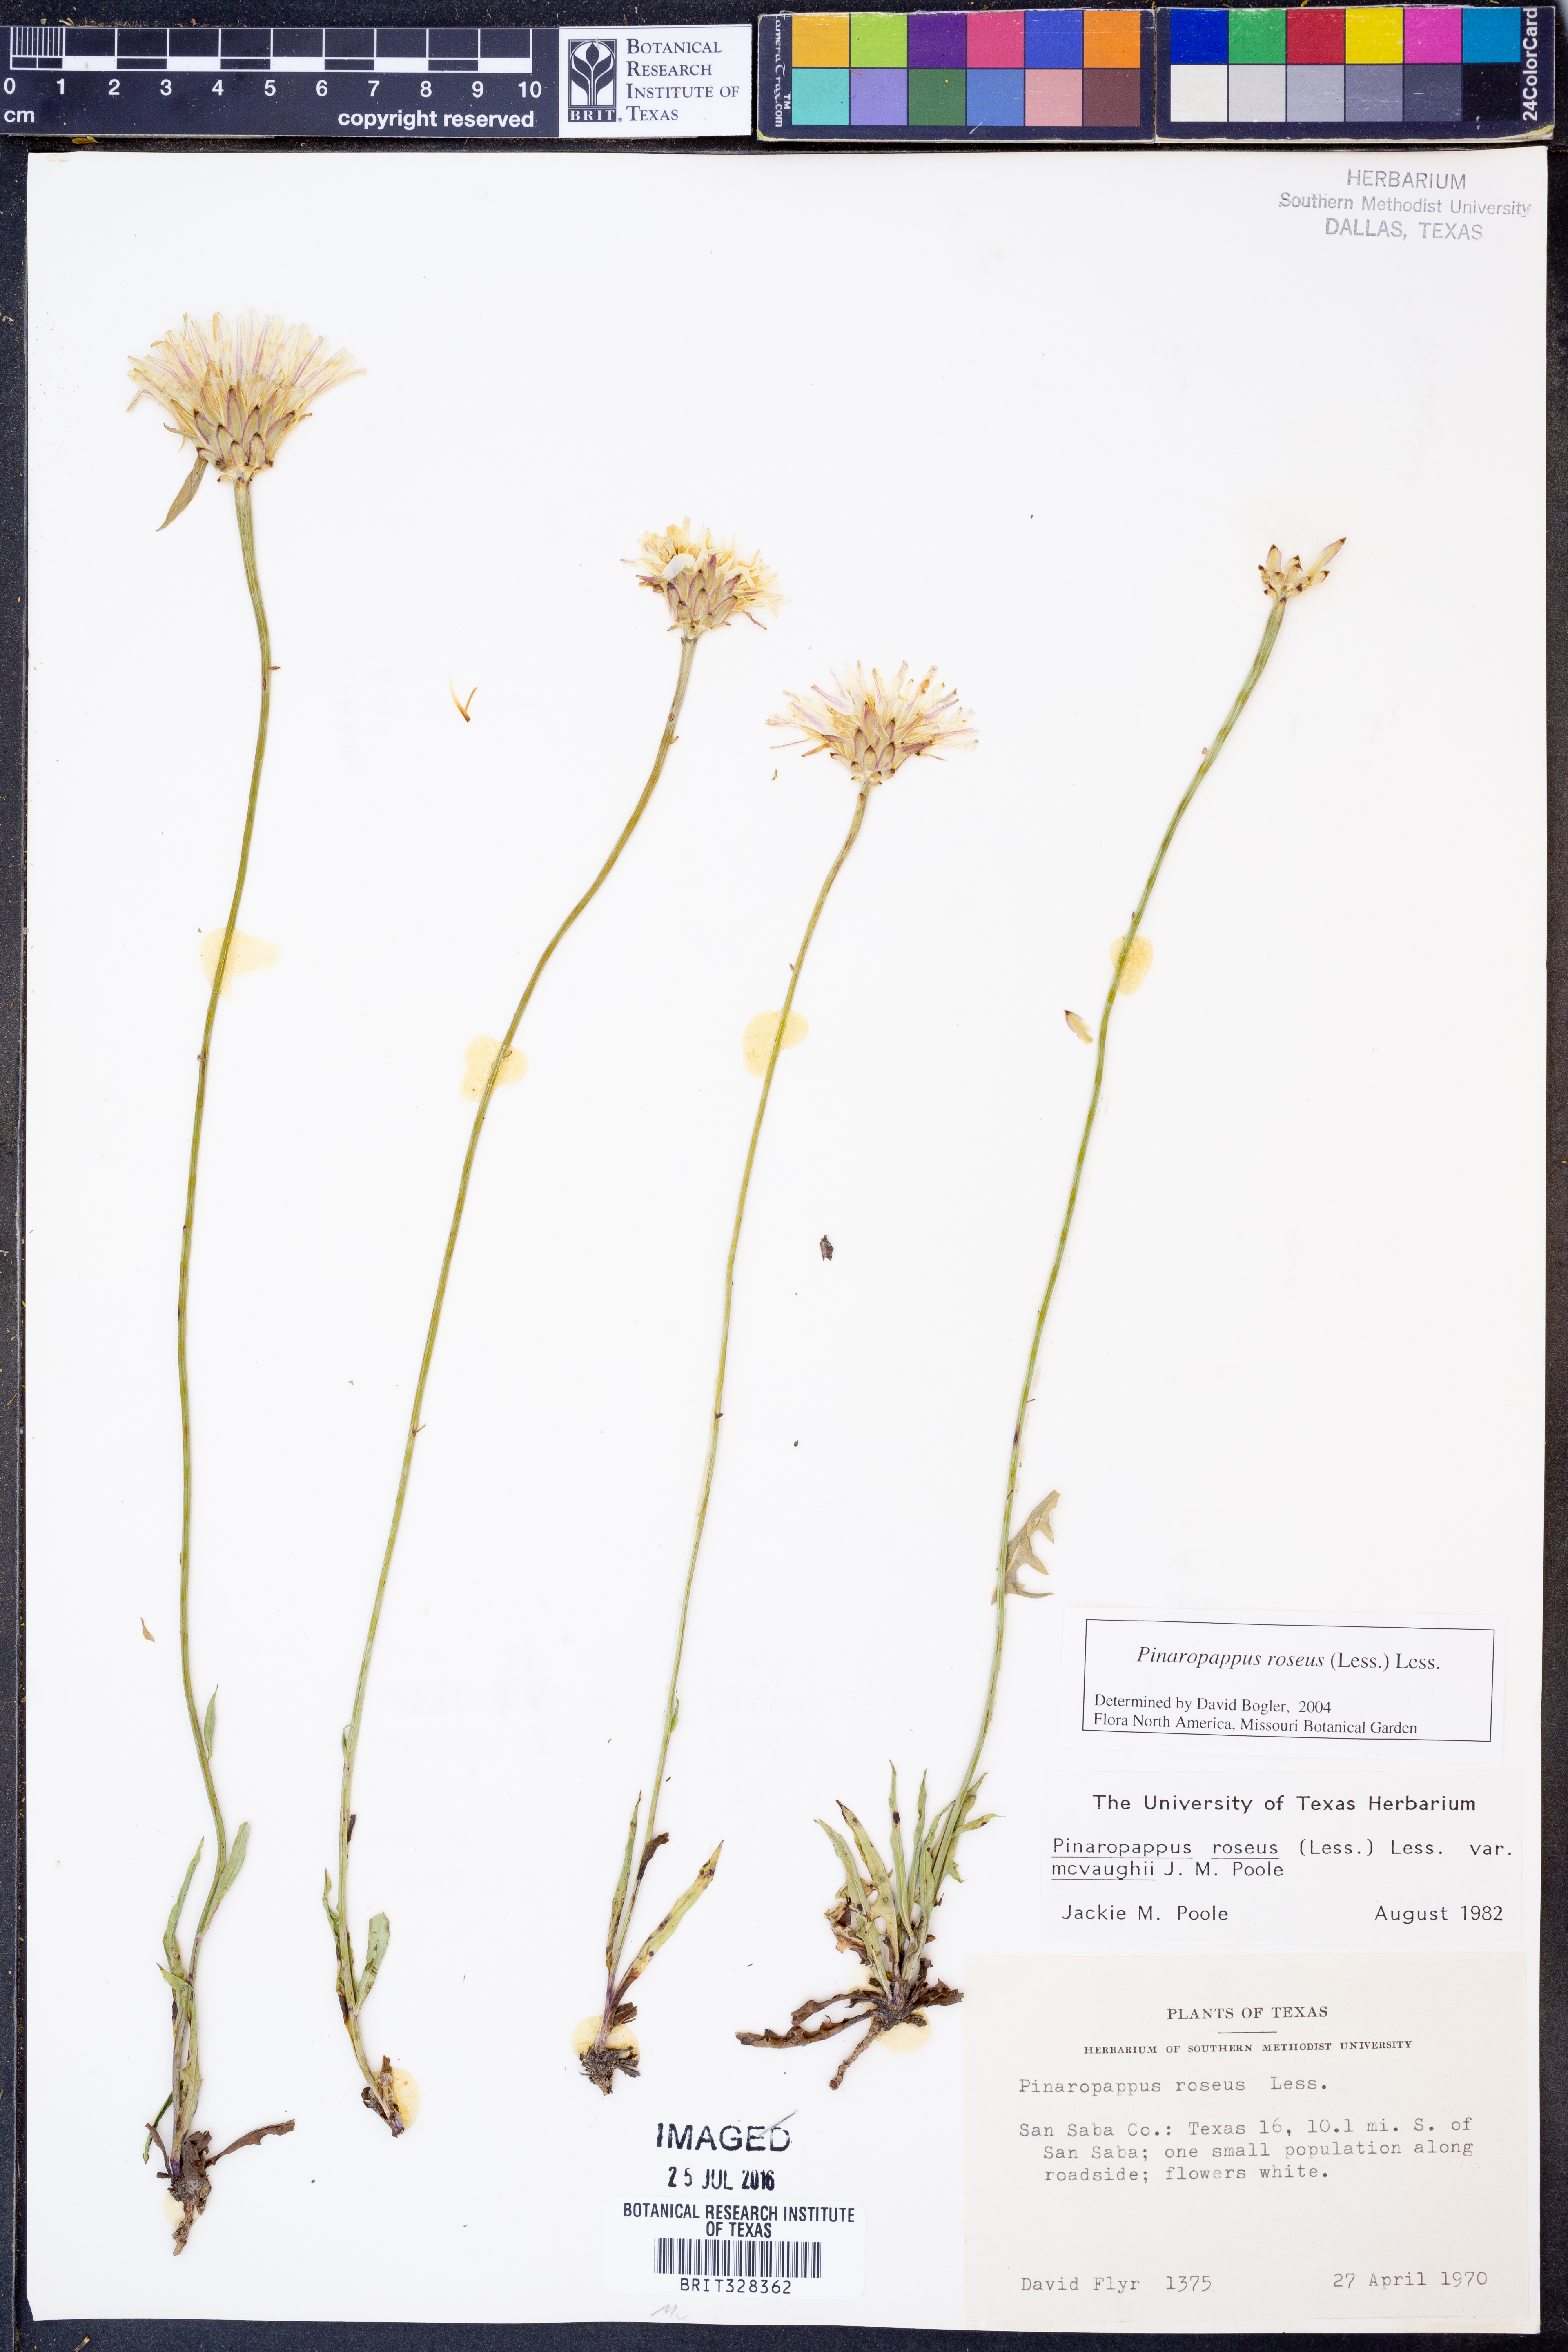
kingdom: Plantae
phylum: Tracheophyta
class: Magnoliopsida
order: Asterales
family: Asteraceae
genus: Pinaropappus
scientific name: Pinaropappus roseus
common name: Rock-lettuce
